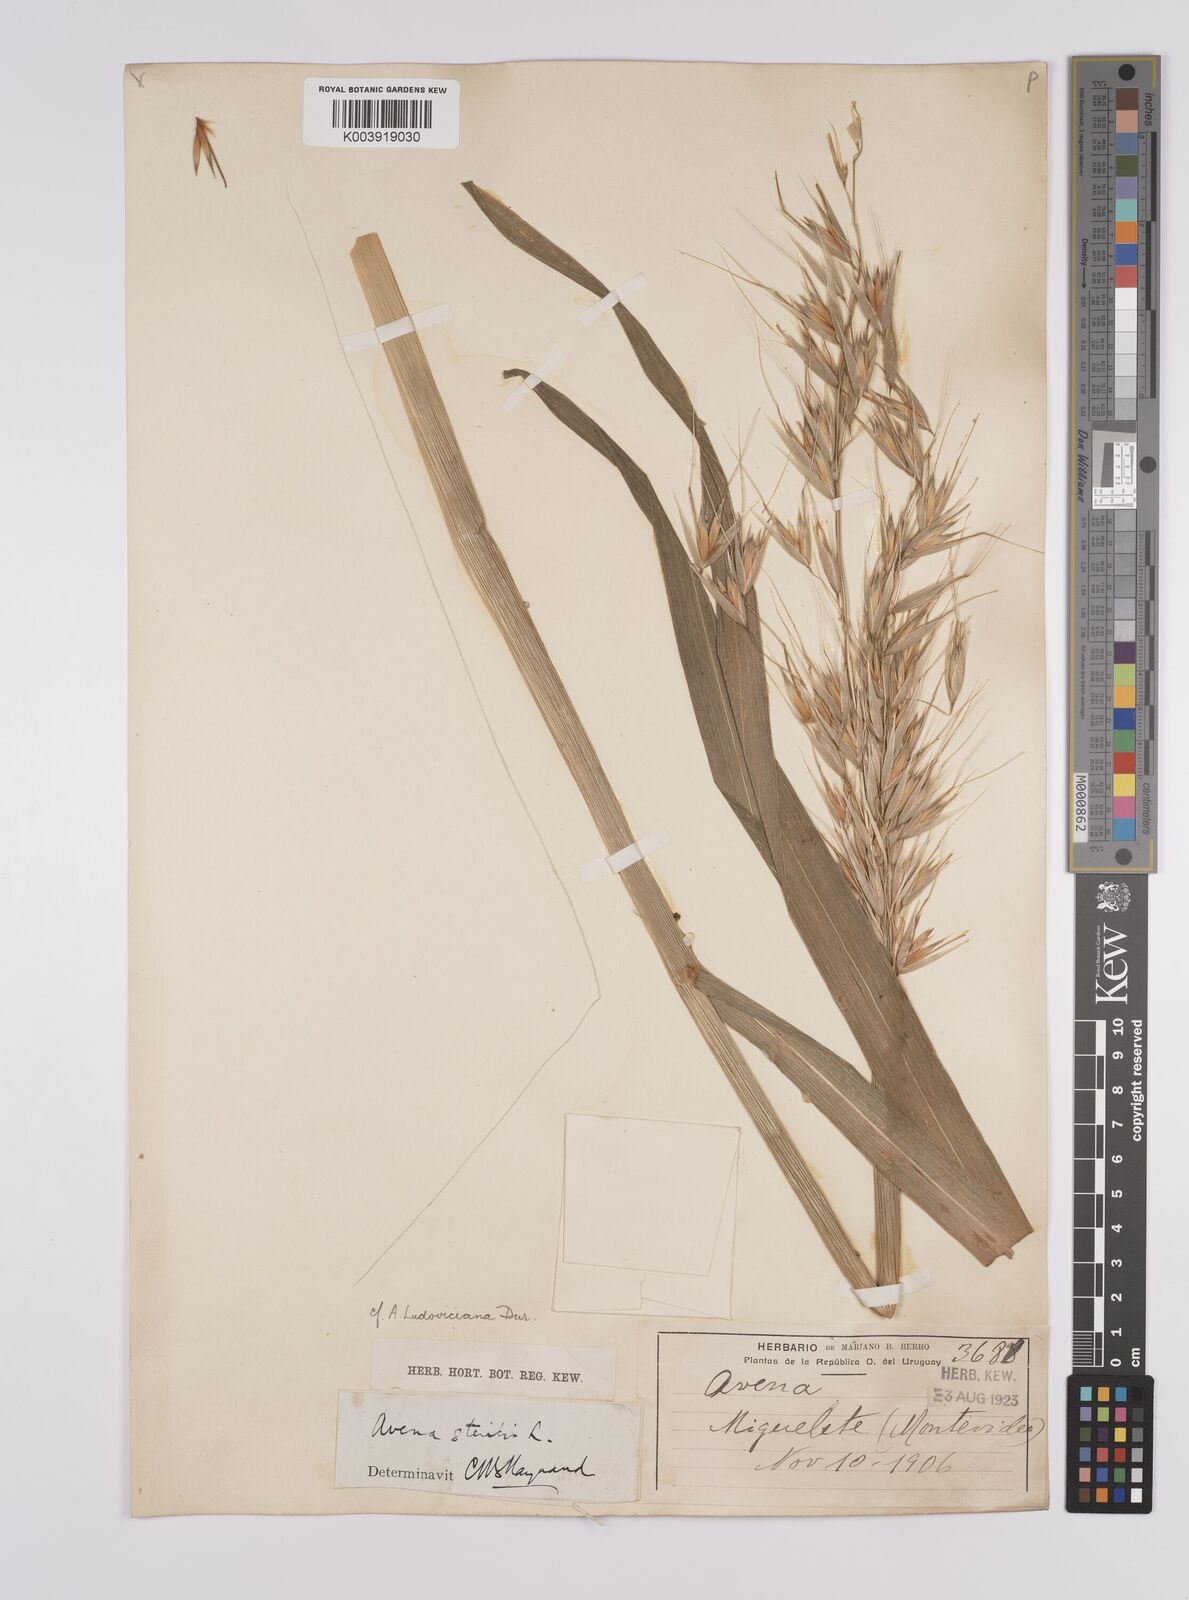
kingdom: Plantae
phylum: Tracheophyta
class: Liliopsida
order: Poales
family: Poaceae
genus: Avena
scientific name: Avena sterilis
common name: Animated oat
